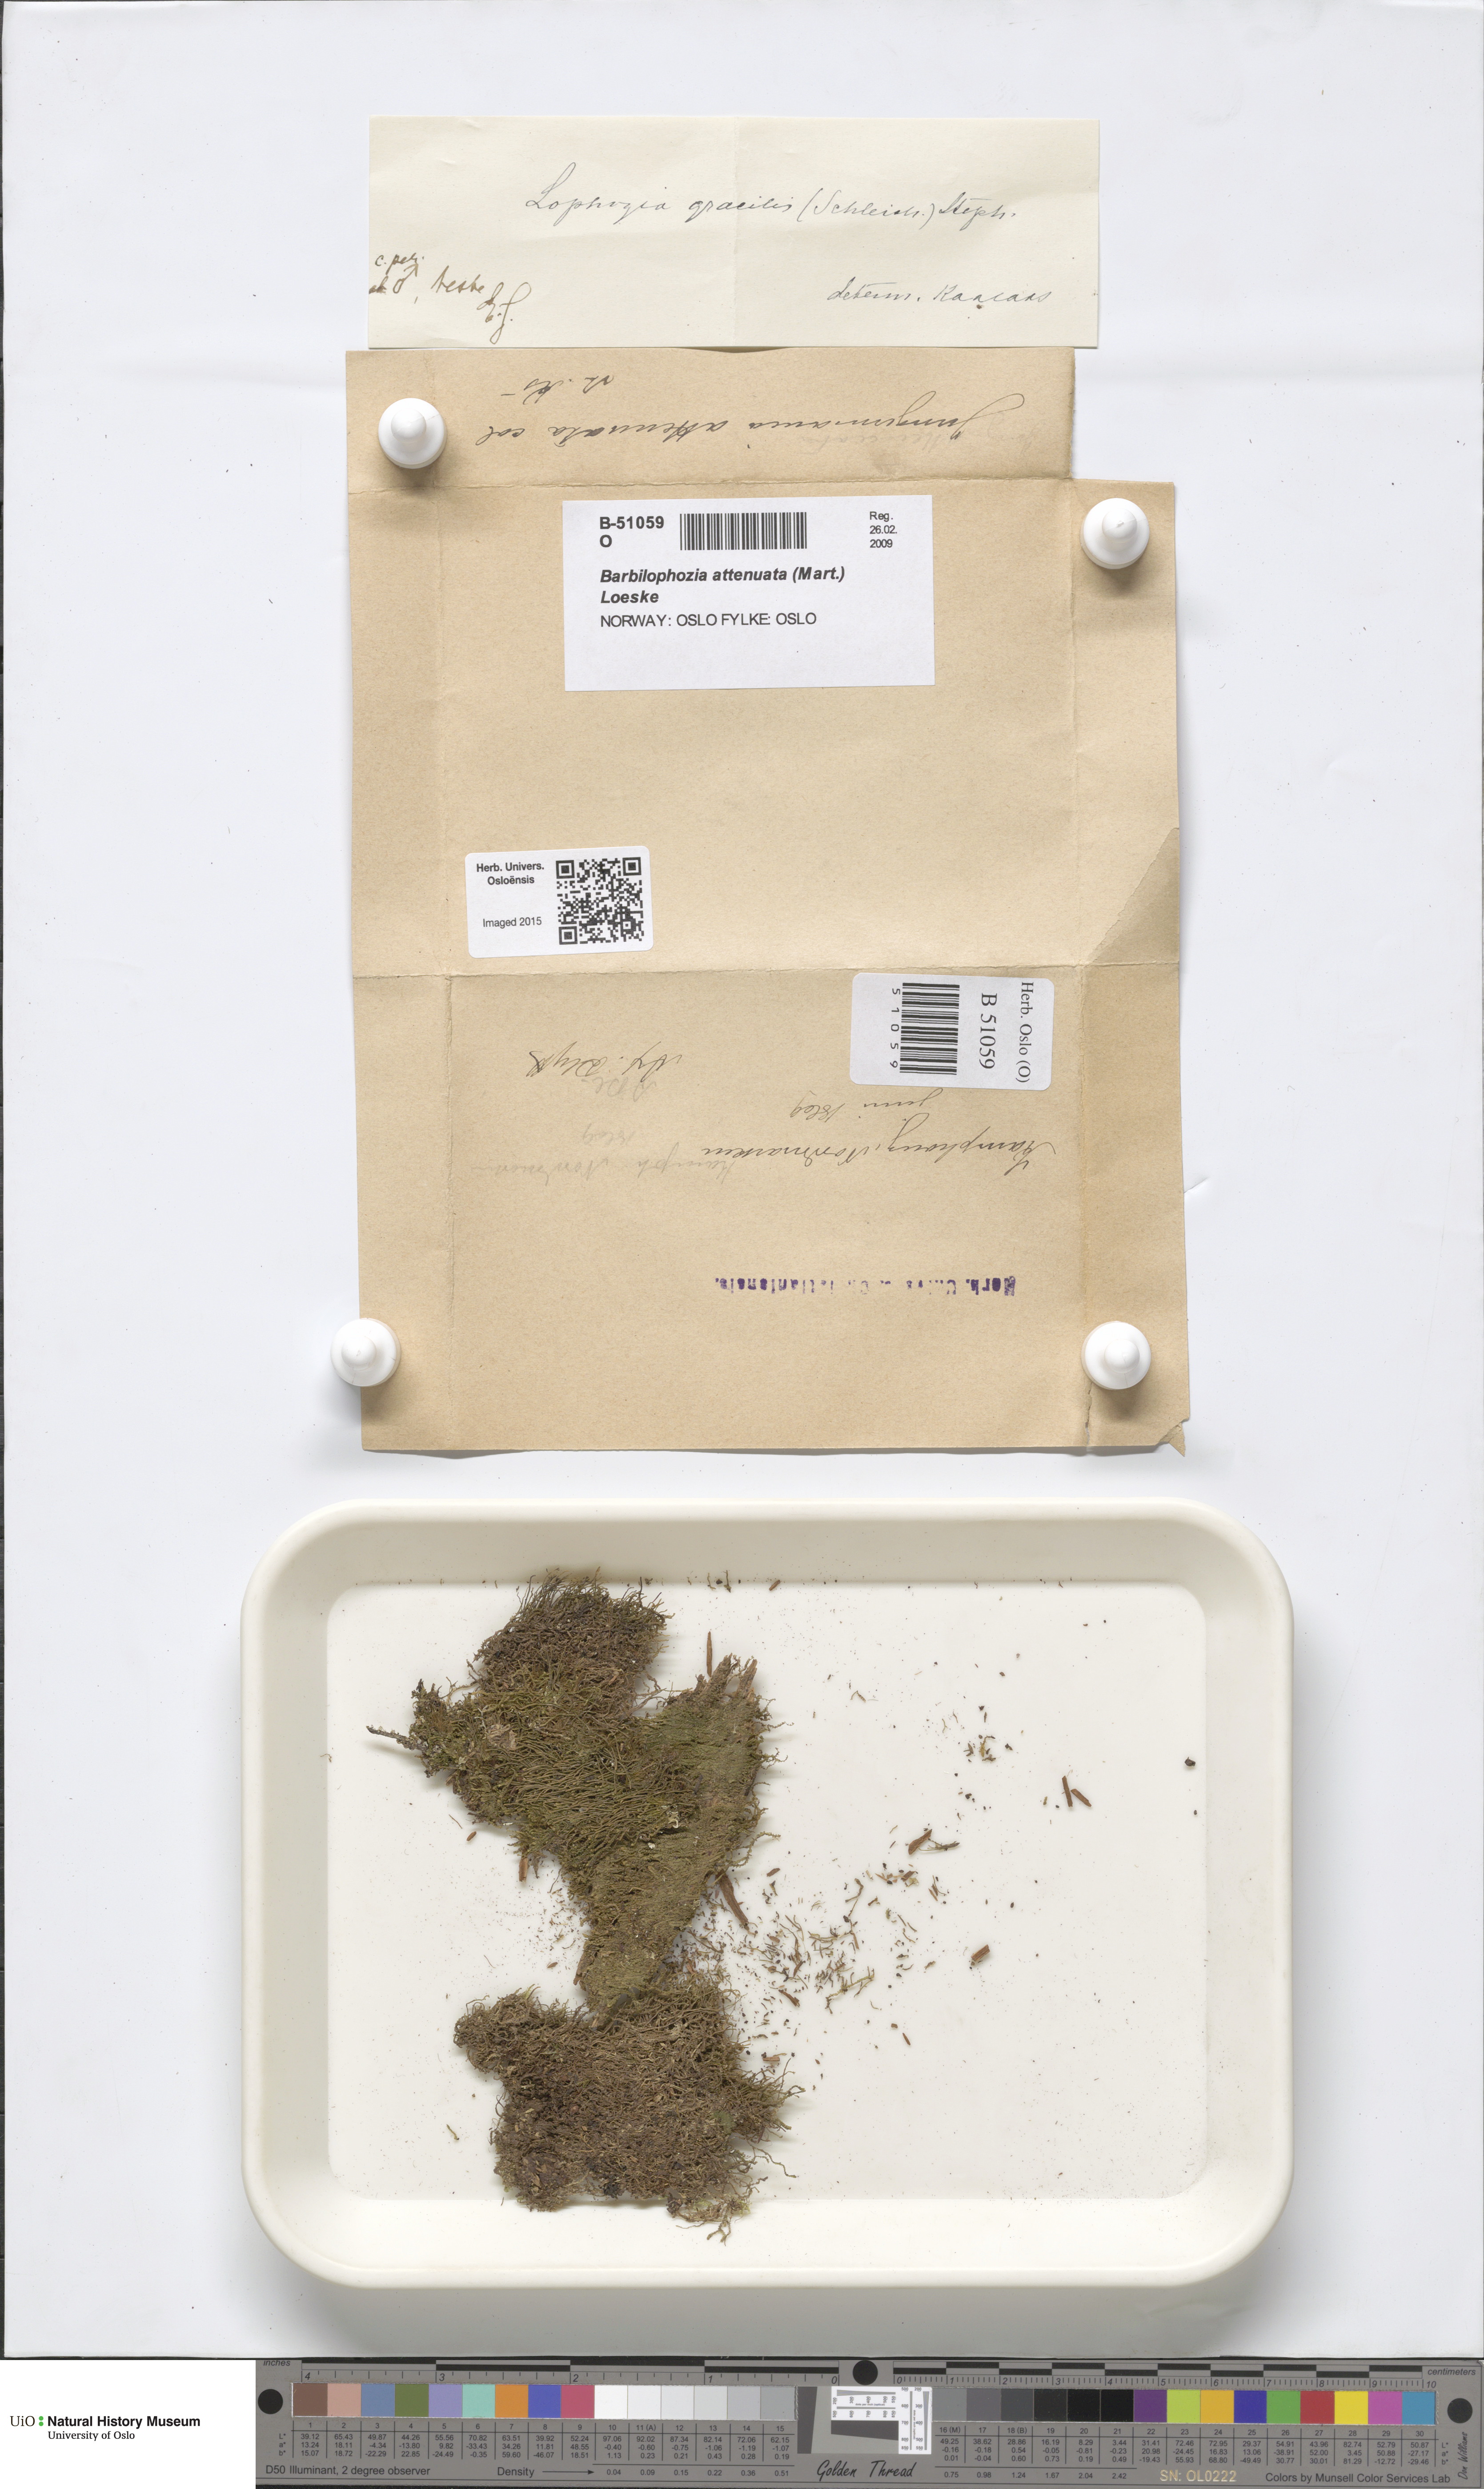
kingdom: Plantae
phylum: Marchantiophyta
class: Jungermanniopsida
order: Jungermanniales
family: Anastrophyllaceae
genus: Neoorthocaulis
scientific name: Neoorthocaulis attenuatus
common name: Trunk pawwort
